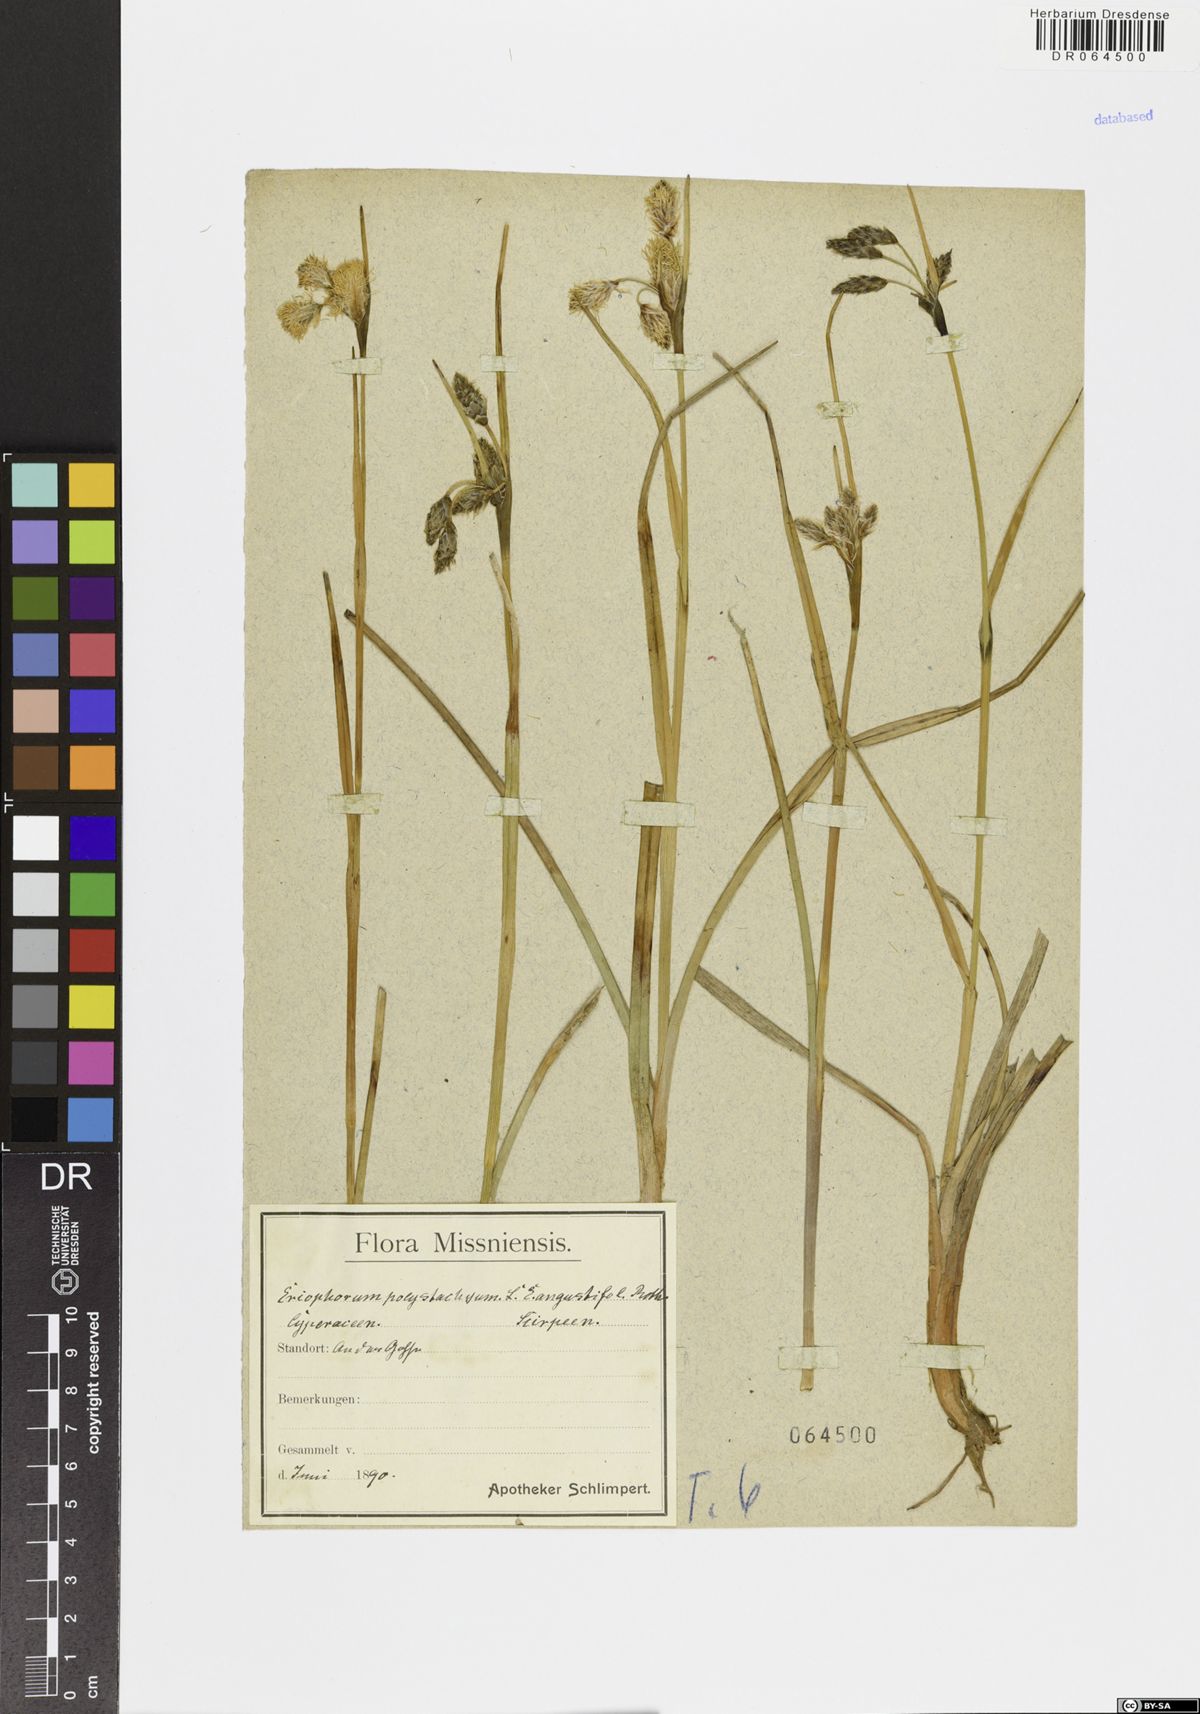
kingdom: Plantae
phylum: Tracheophyta
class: Liliopsida
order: Poales
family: Cyperaceae
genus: Eriophorum
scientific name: Eriophorum angustifolium
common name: Common cottongrass
